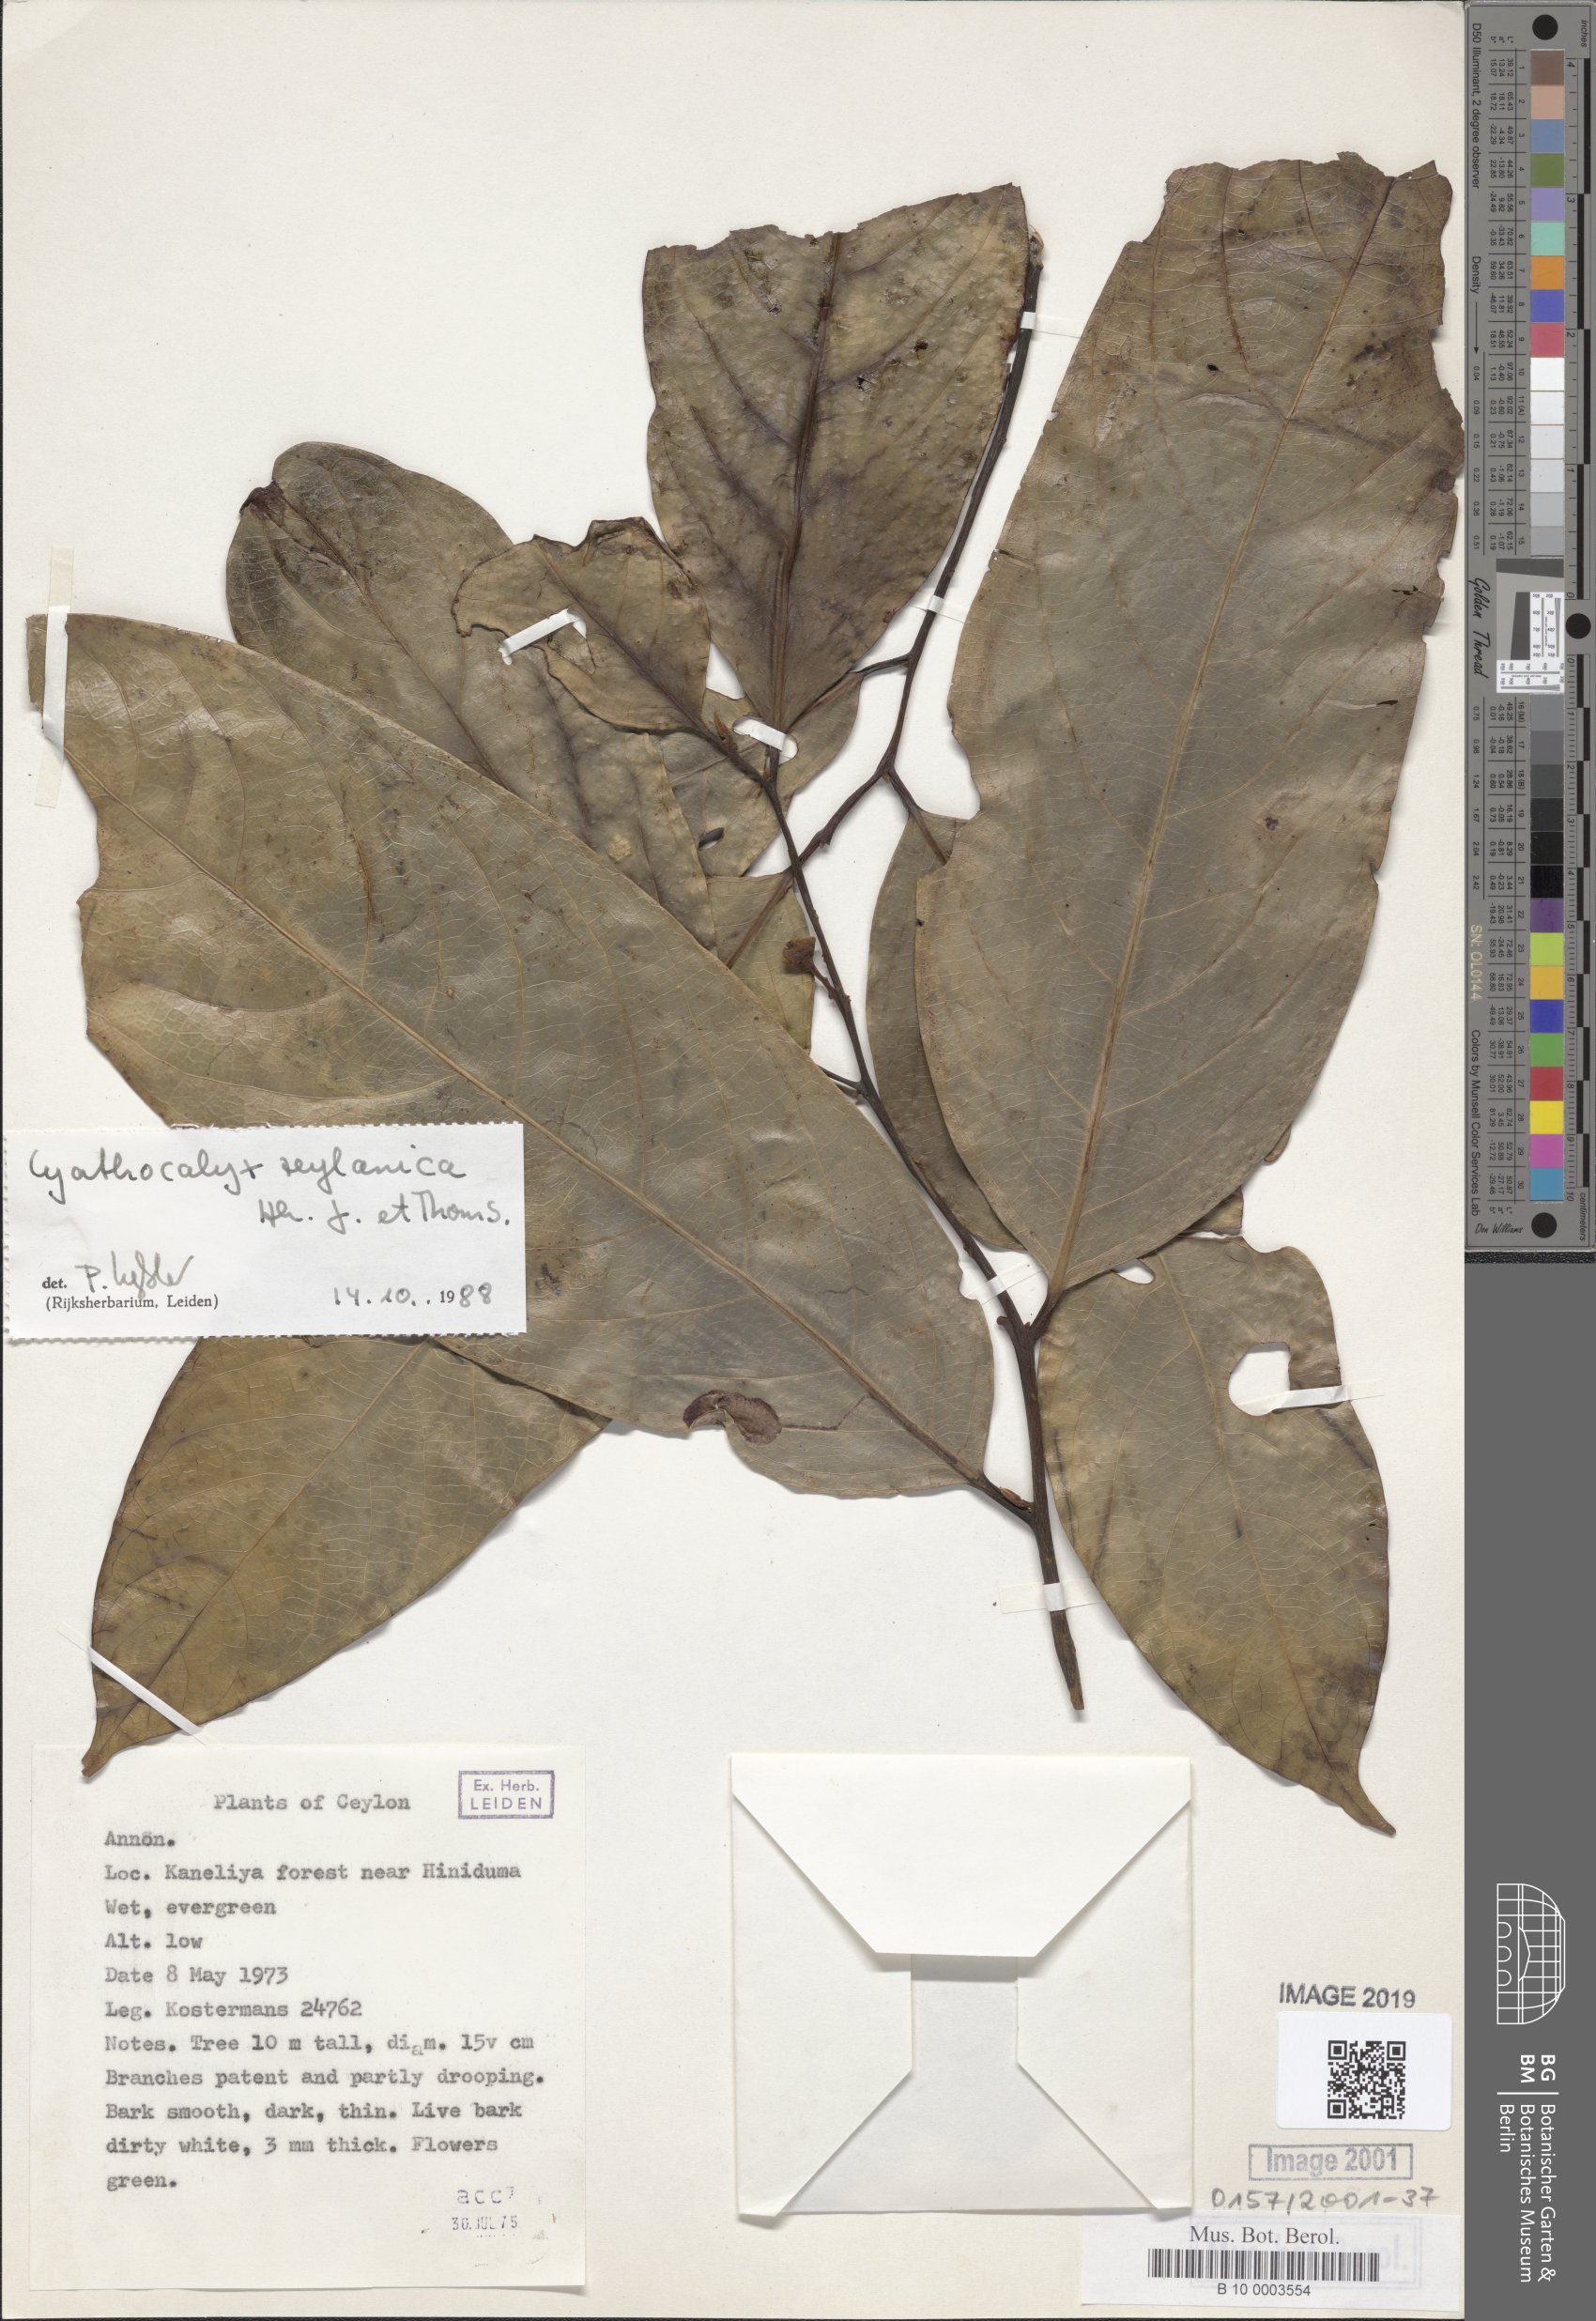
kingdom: Plantae
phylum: Tracheophyta
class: Magnoliopsida
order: Magnoliales
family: Annonaceae
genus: Cyathocalyx
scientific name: Cyathocalyx zeylanicus
